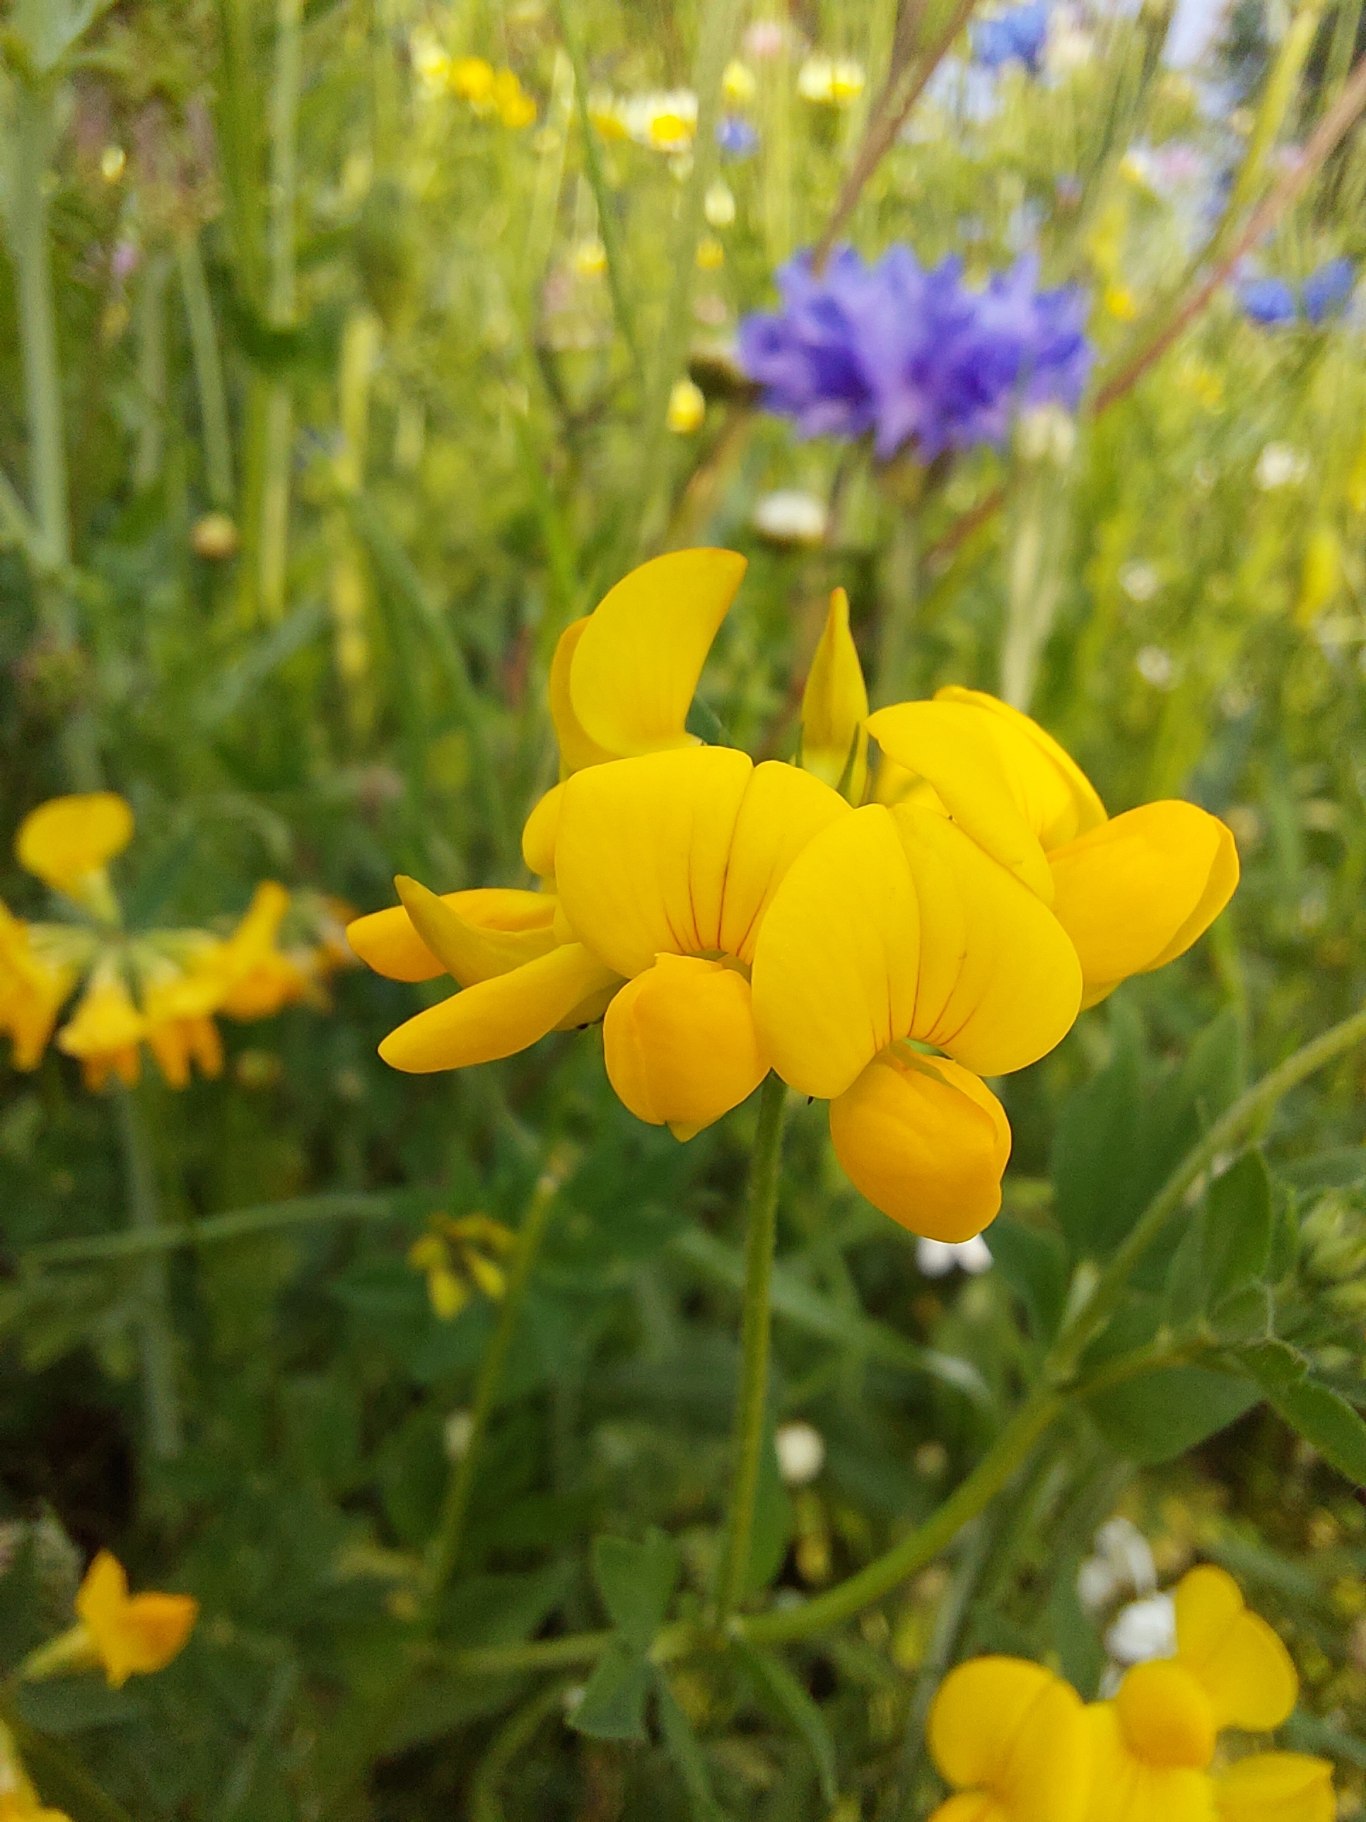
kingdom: Plantae
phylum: Tracheophyta
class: Magnoliopsida
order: Fabales
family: Fabaceae
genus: Lotus
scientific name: Lotus corniculatus
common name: Almindelig kællingetand
